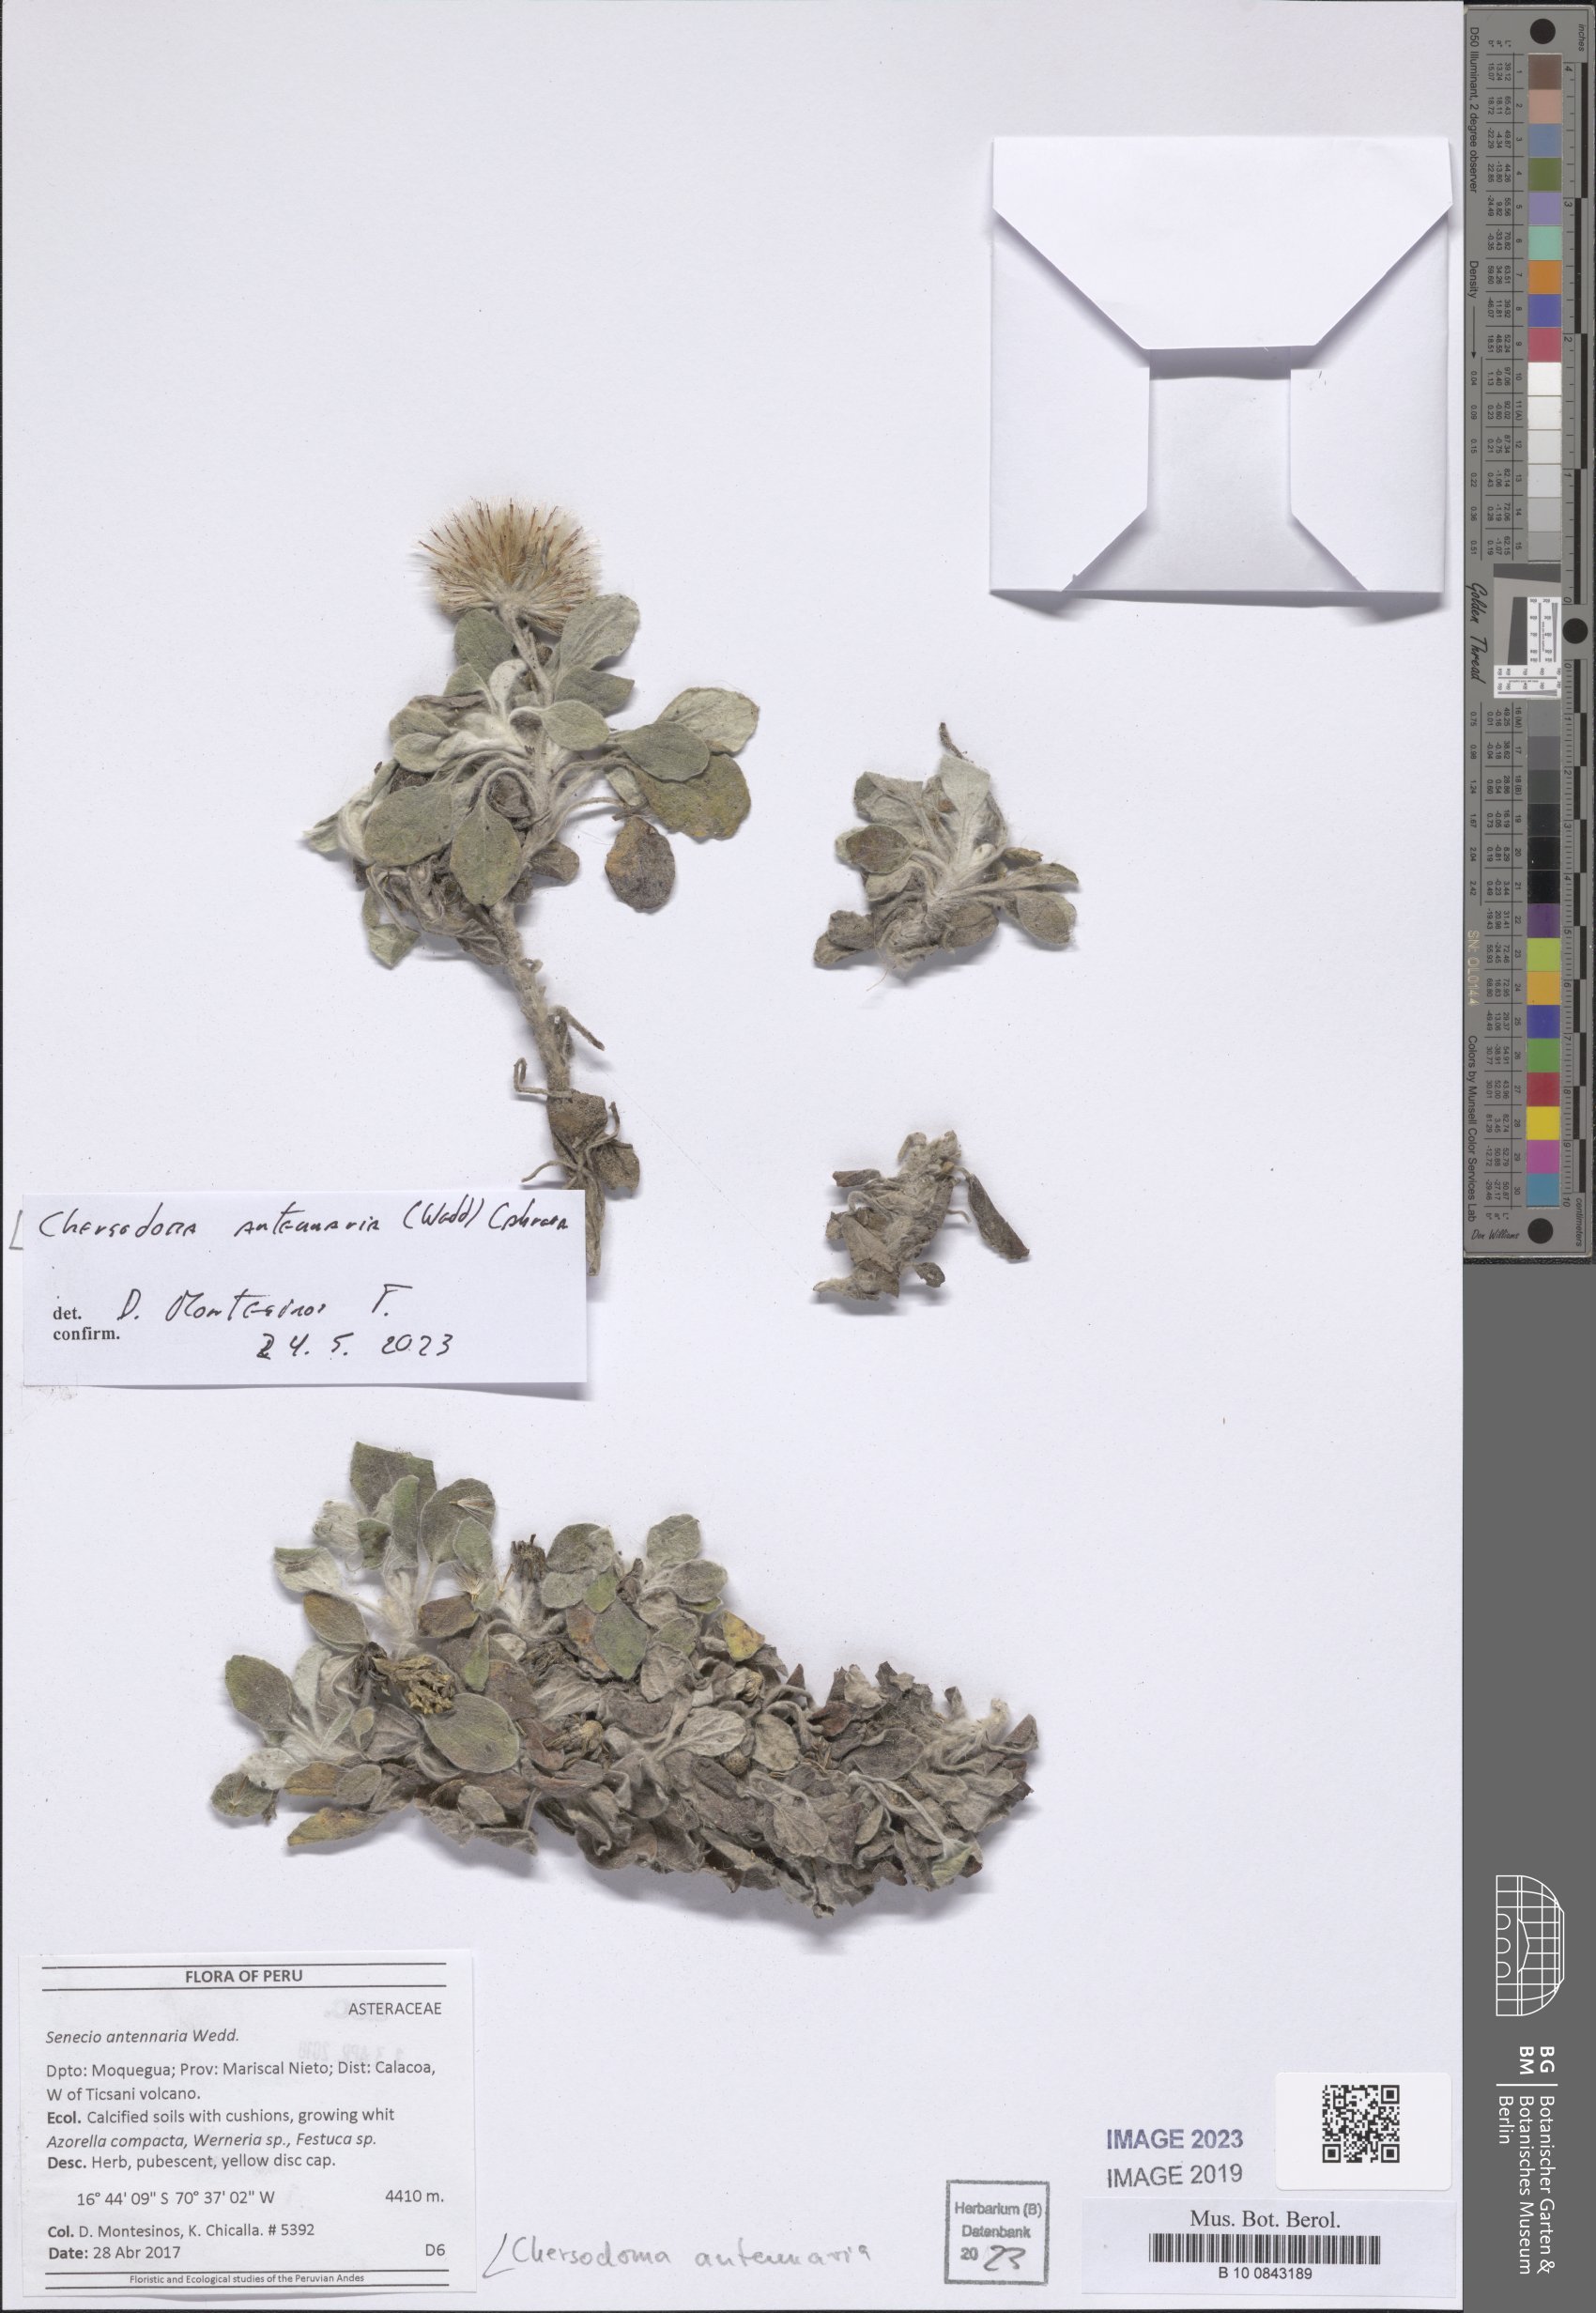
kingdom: Plantae
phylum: Tracheophyta
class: Magnoliopsida
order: Asterales
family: Asteraceae
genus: Chersodoma
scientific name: Chersodoma antennaria
